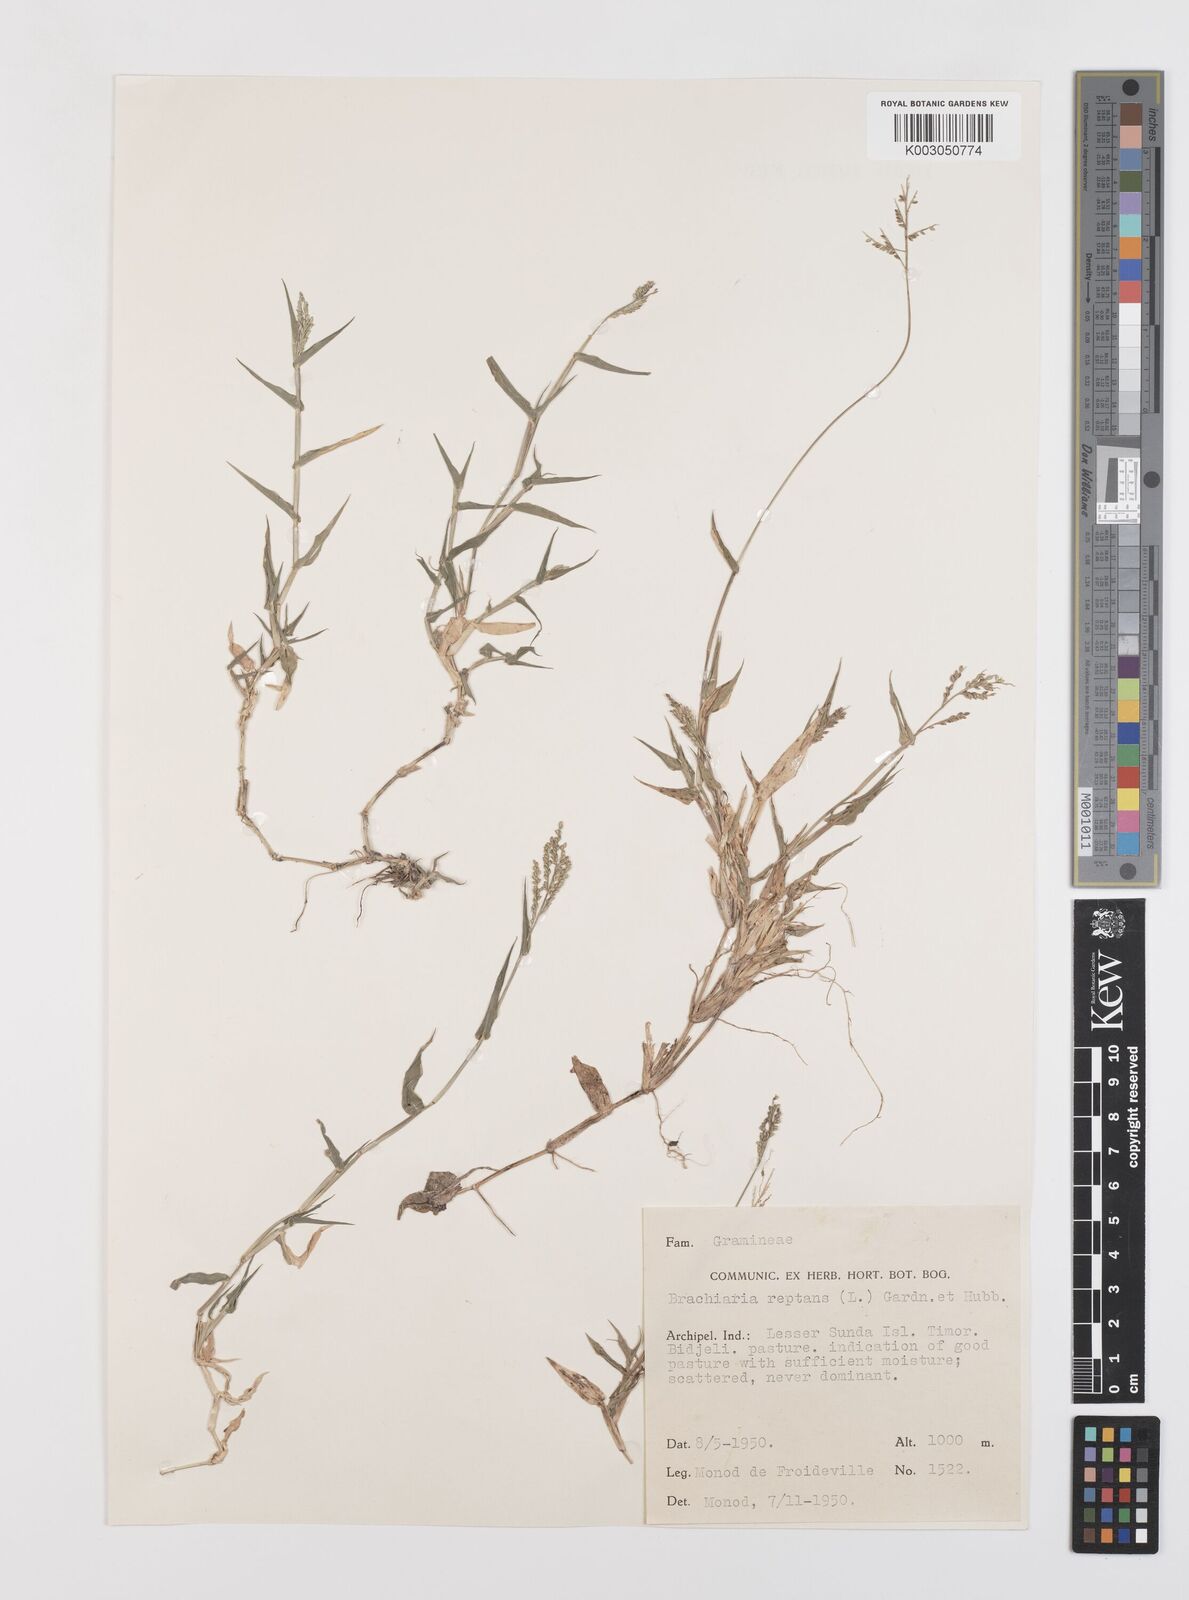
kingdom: Plantae
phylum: Tracheophyta
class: Liliopsida
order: Poales
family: Poaceae
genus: Urochloa
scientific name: Urochloa reptans
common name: Sprawling signalgrass
